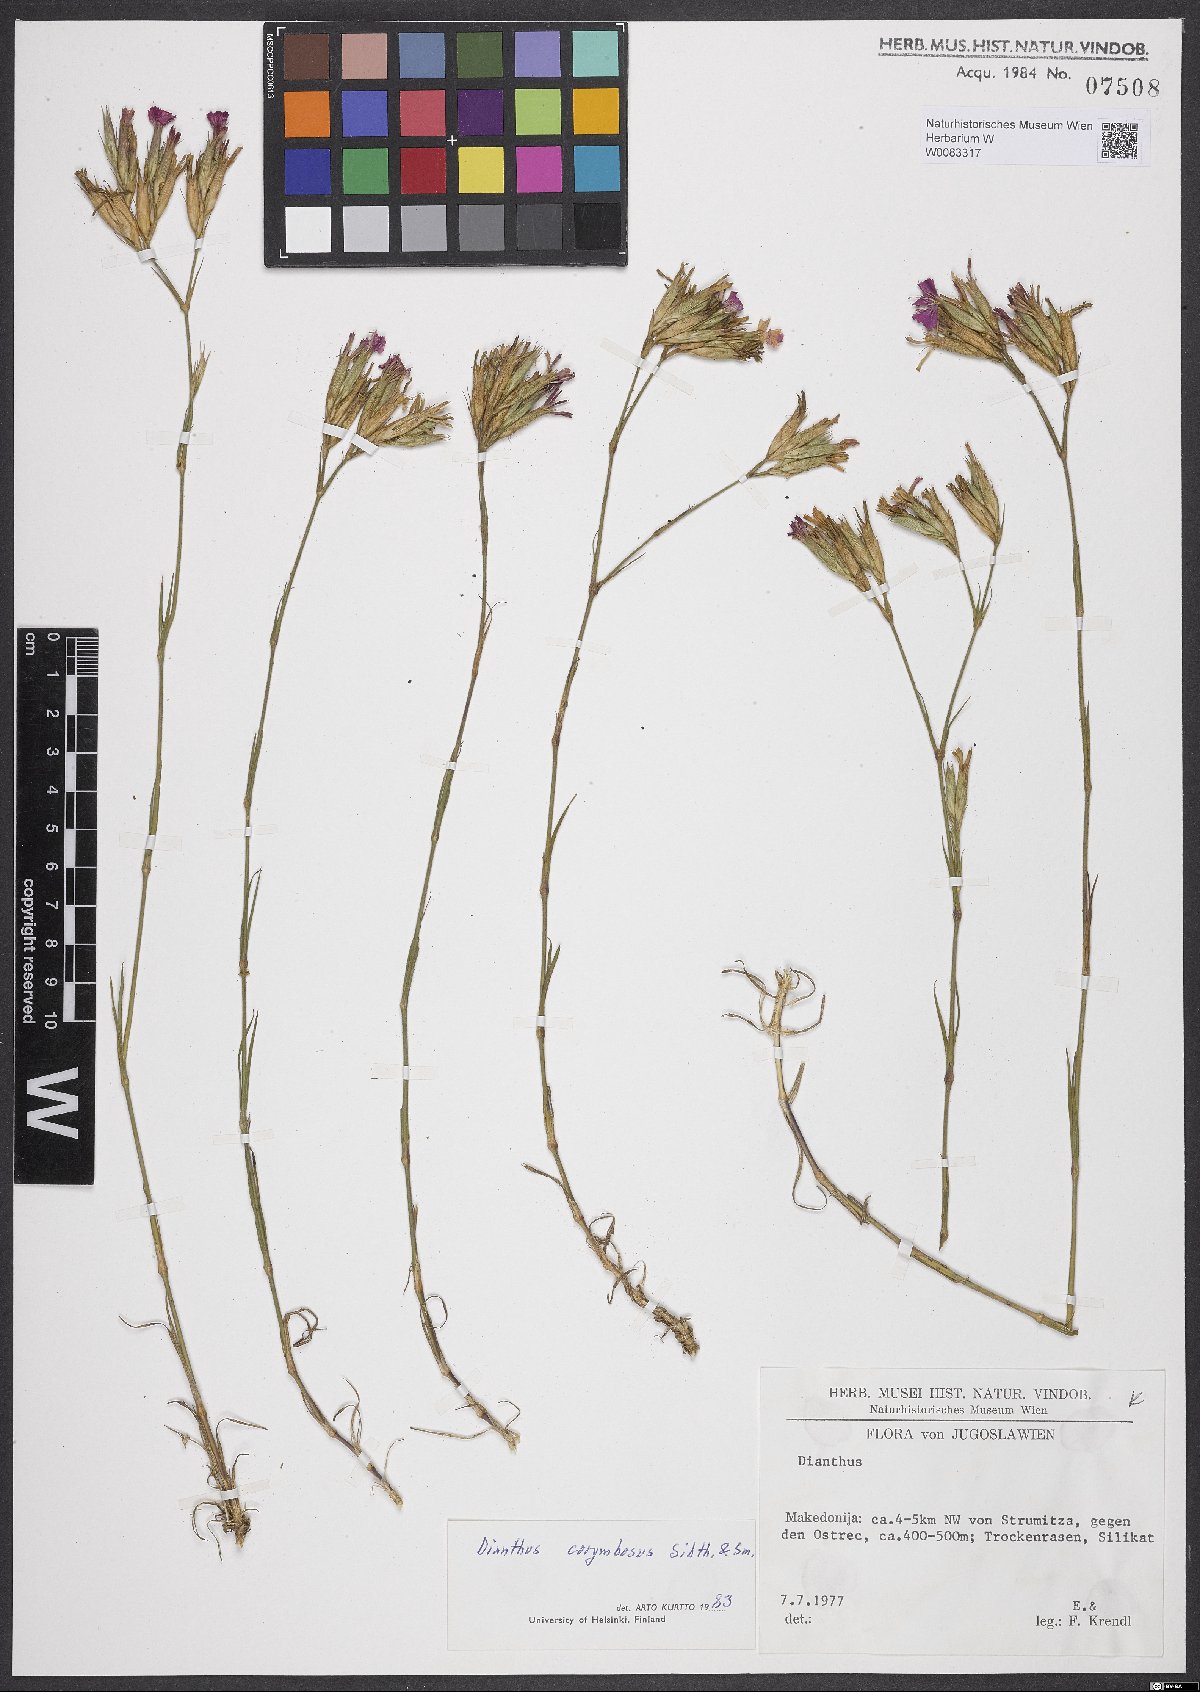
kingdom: Plantae
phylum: Tracheophyta
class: Magnoliopsida
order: Caryophyllales
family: Caryophyllaceae
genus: Dianthus
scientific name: Dianthus corymbosus
